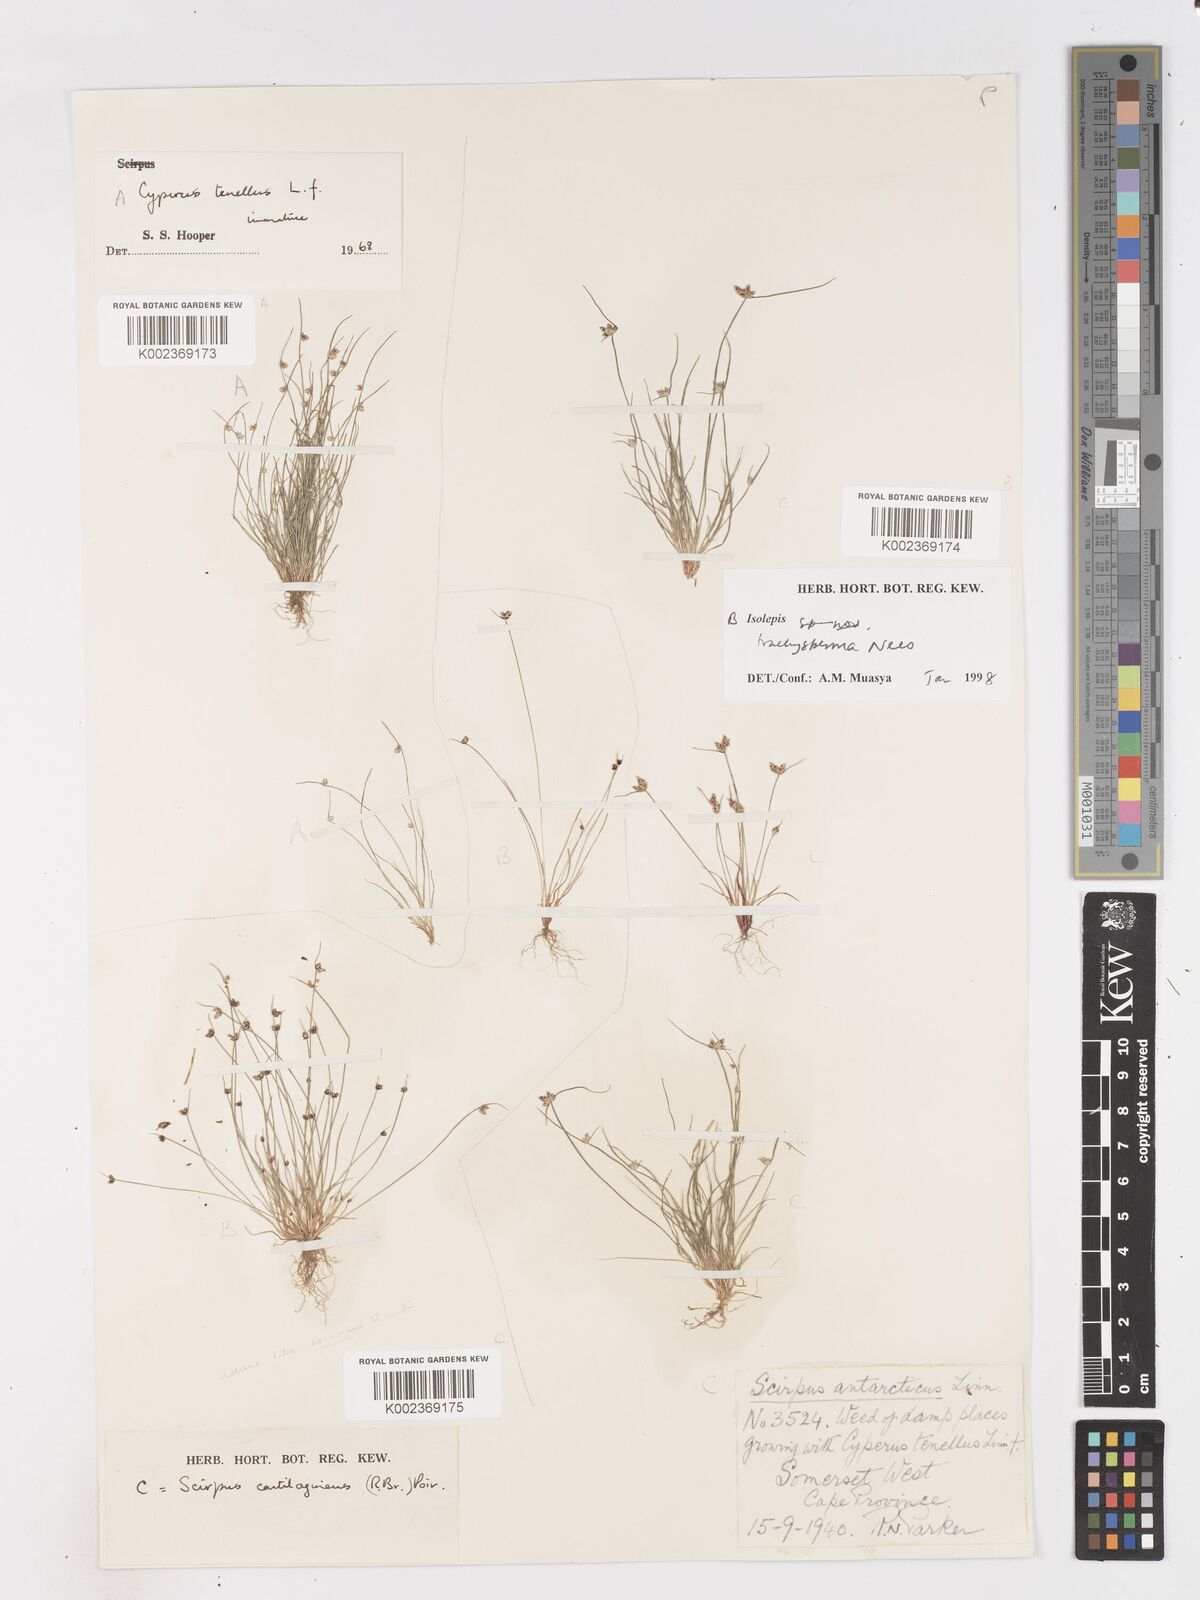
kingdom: Plantae
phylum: Tracheophyta
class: Liliopsida
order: Poales
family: Cyperaceae
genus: Isolepis
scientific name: Isolepis trachysperma
